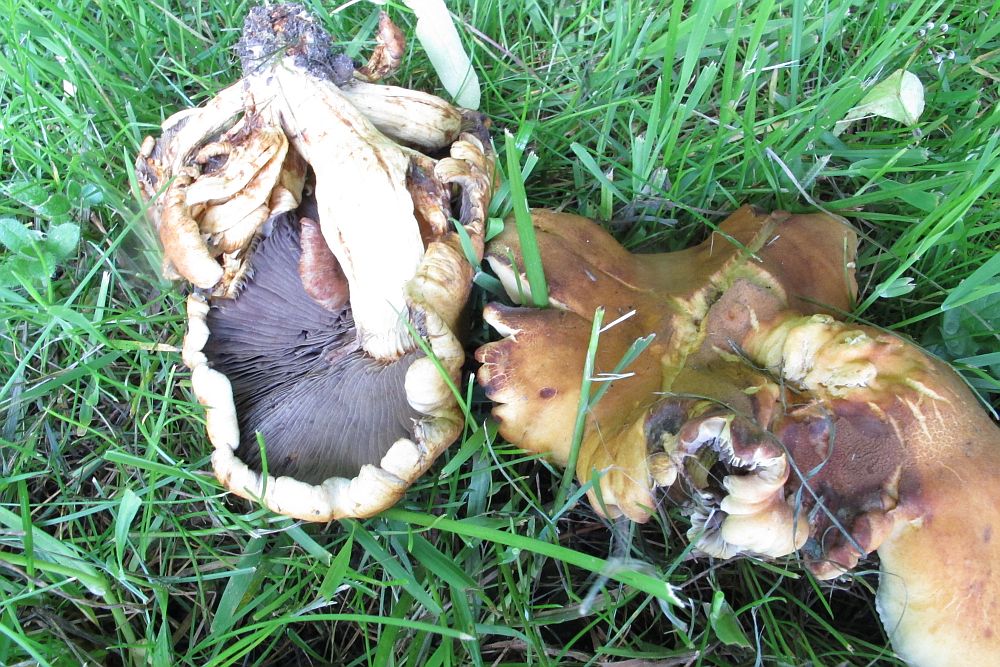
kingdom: Fungi
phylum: Basidiomycota
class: Agaricomycetes
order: Agaricales
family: Strophariaceae
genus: Hypholoma
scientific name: Hypholoma fasciculare
